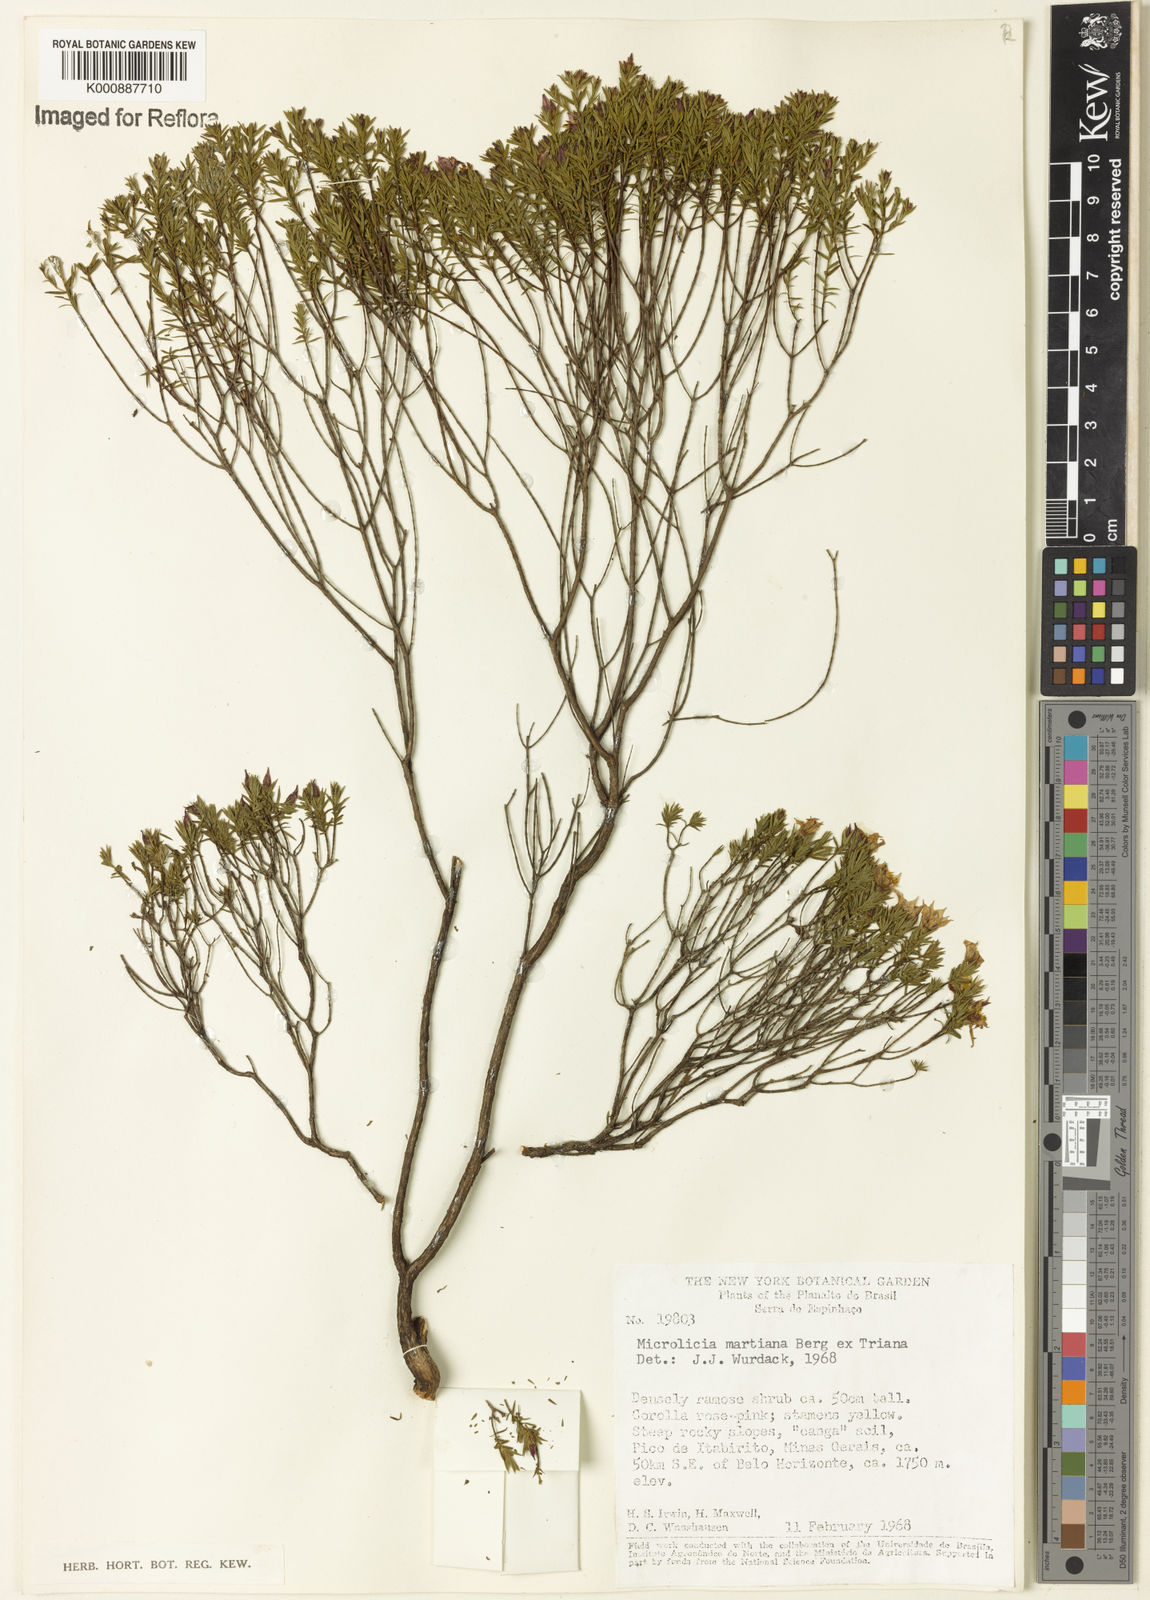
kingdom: Plantae
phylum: Tracheophyta
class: Magnoliopsida
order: Myrtales
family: Melastomataceae
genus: Microlicia
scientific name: Microlicia martiana
